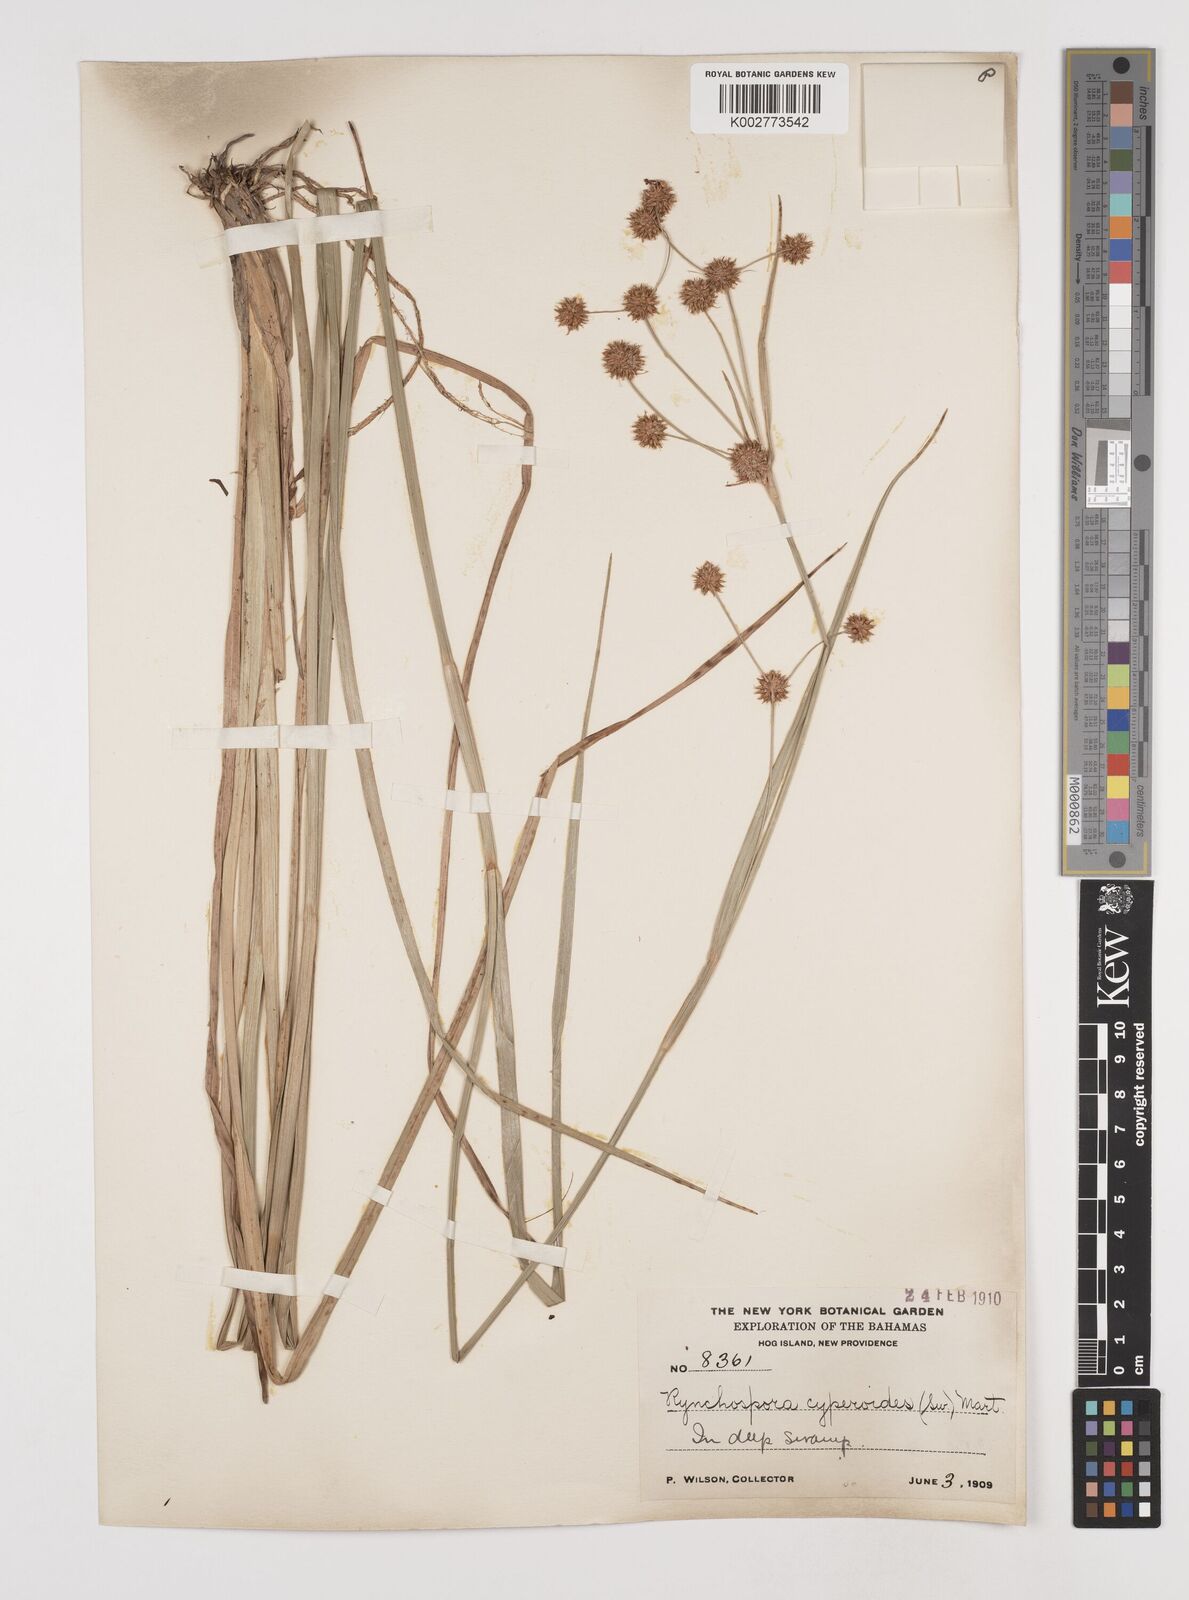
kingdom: Plantae
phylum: Tracheophyta
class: Liliopsida
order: Poales
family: Cyperaceae
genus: Rhynchospora
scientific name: Rhynchospora holoschoenoides
